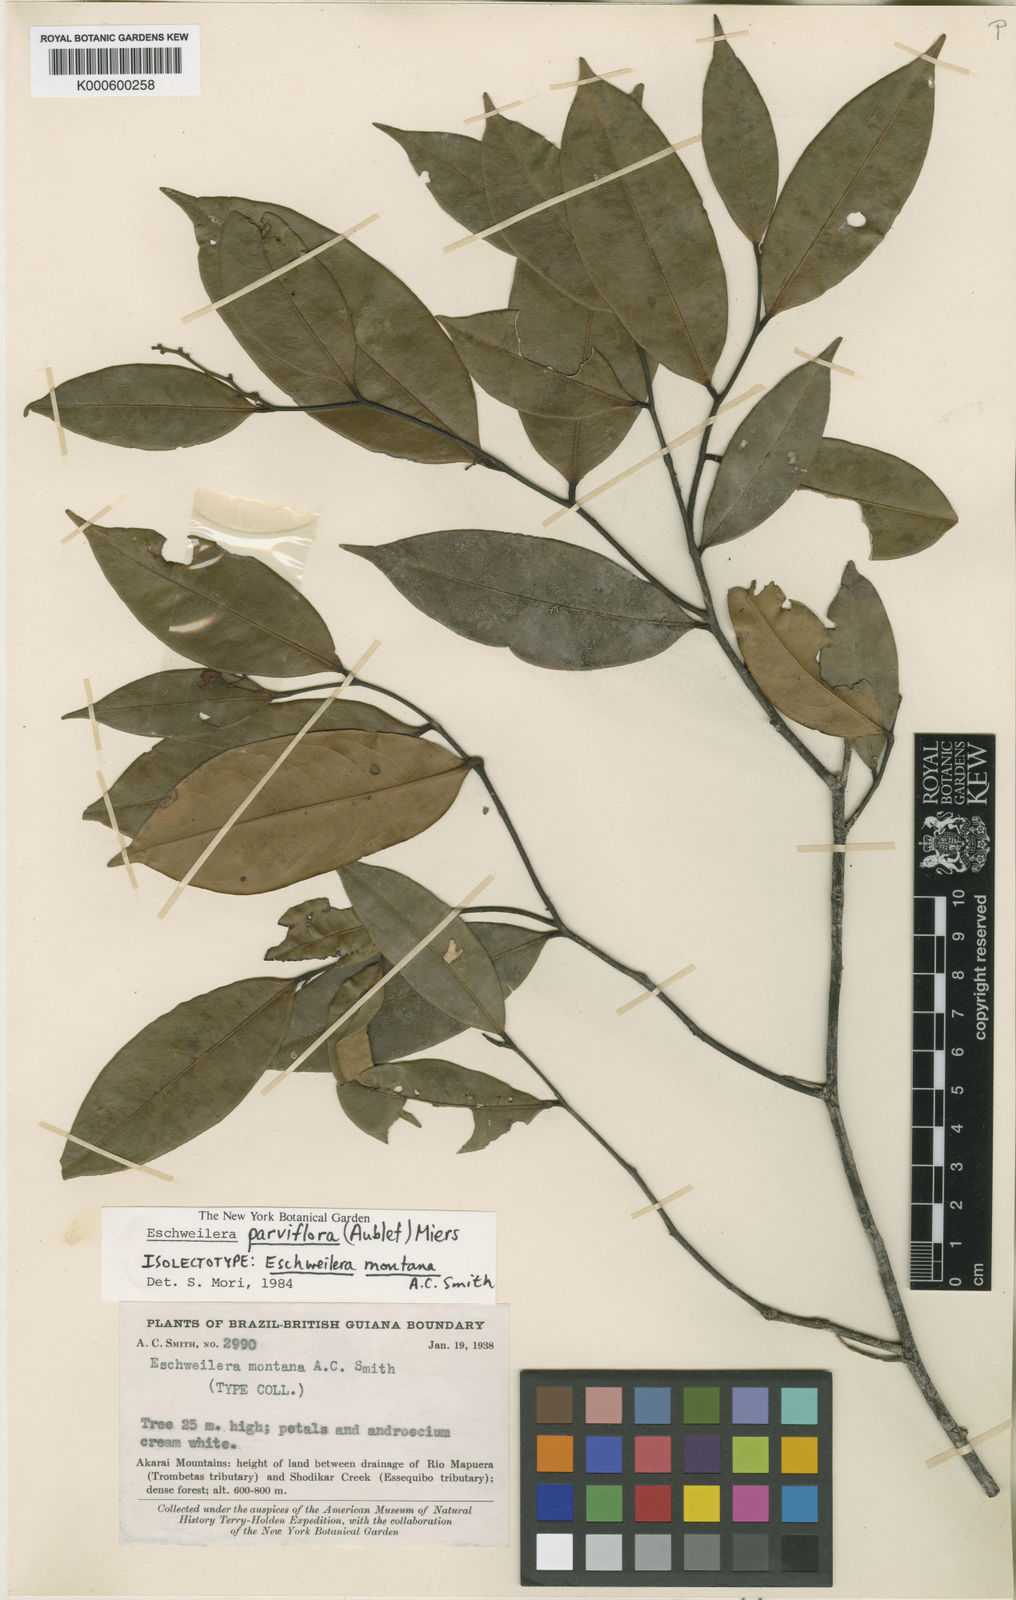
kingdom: Plantae
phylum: Tracheophyta
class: Magnoliopsida
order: Ericales
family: Lecythidaceae
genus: Eschweilera
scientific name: Eschweilera parviflora
